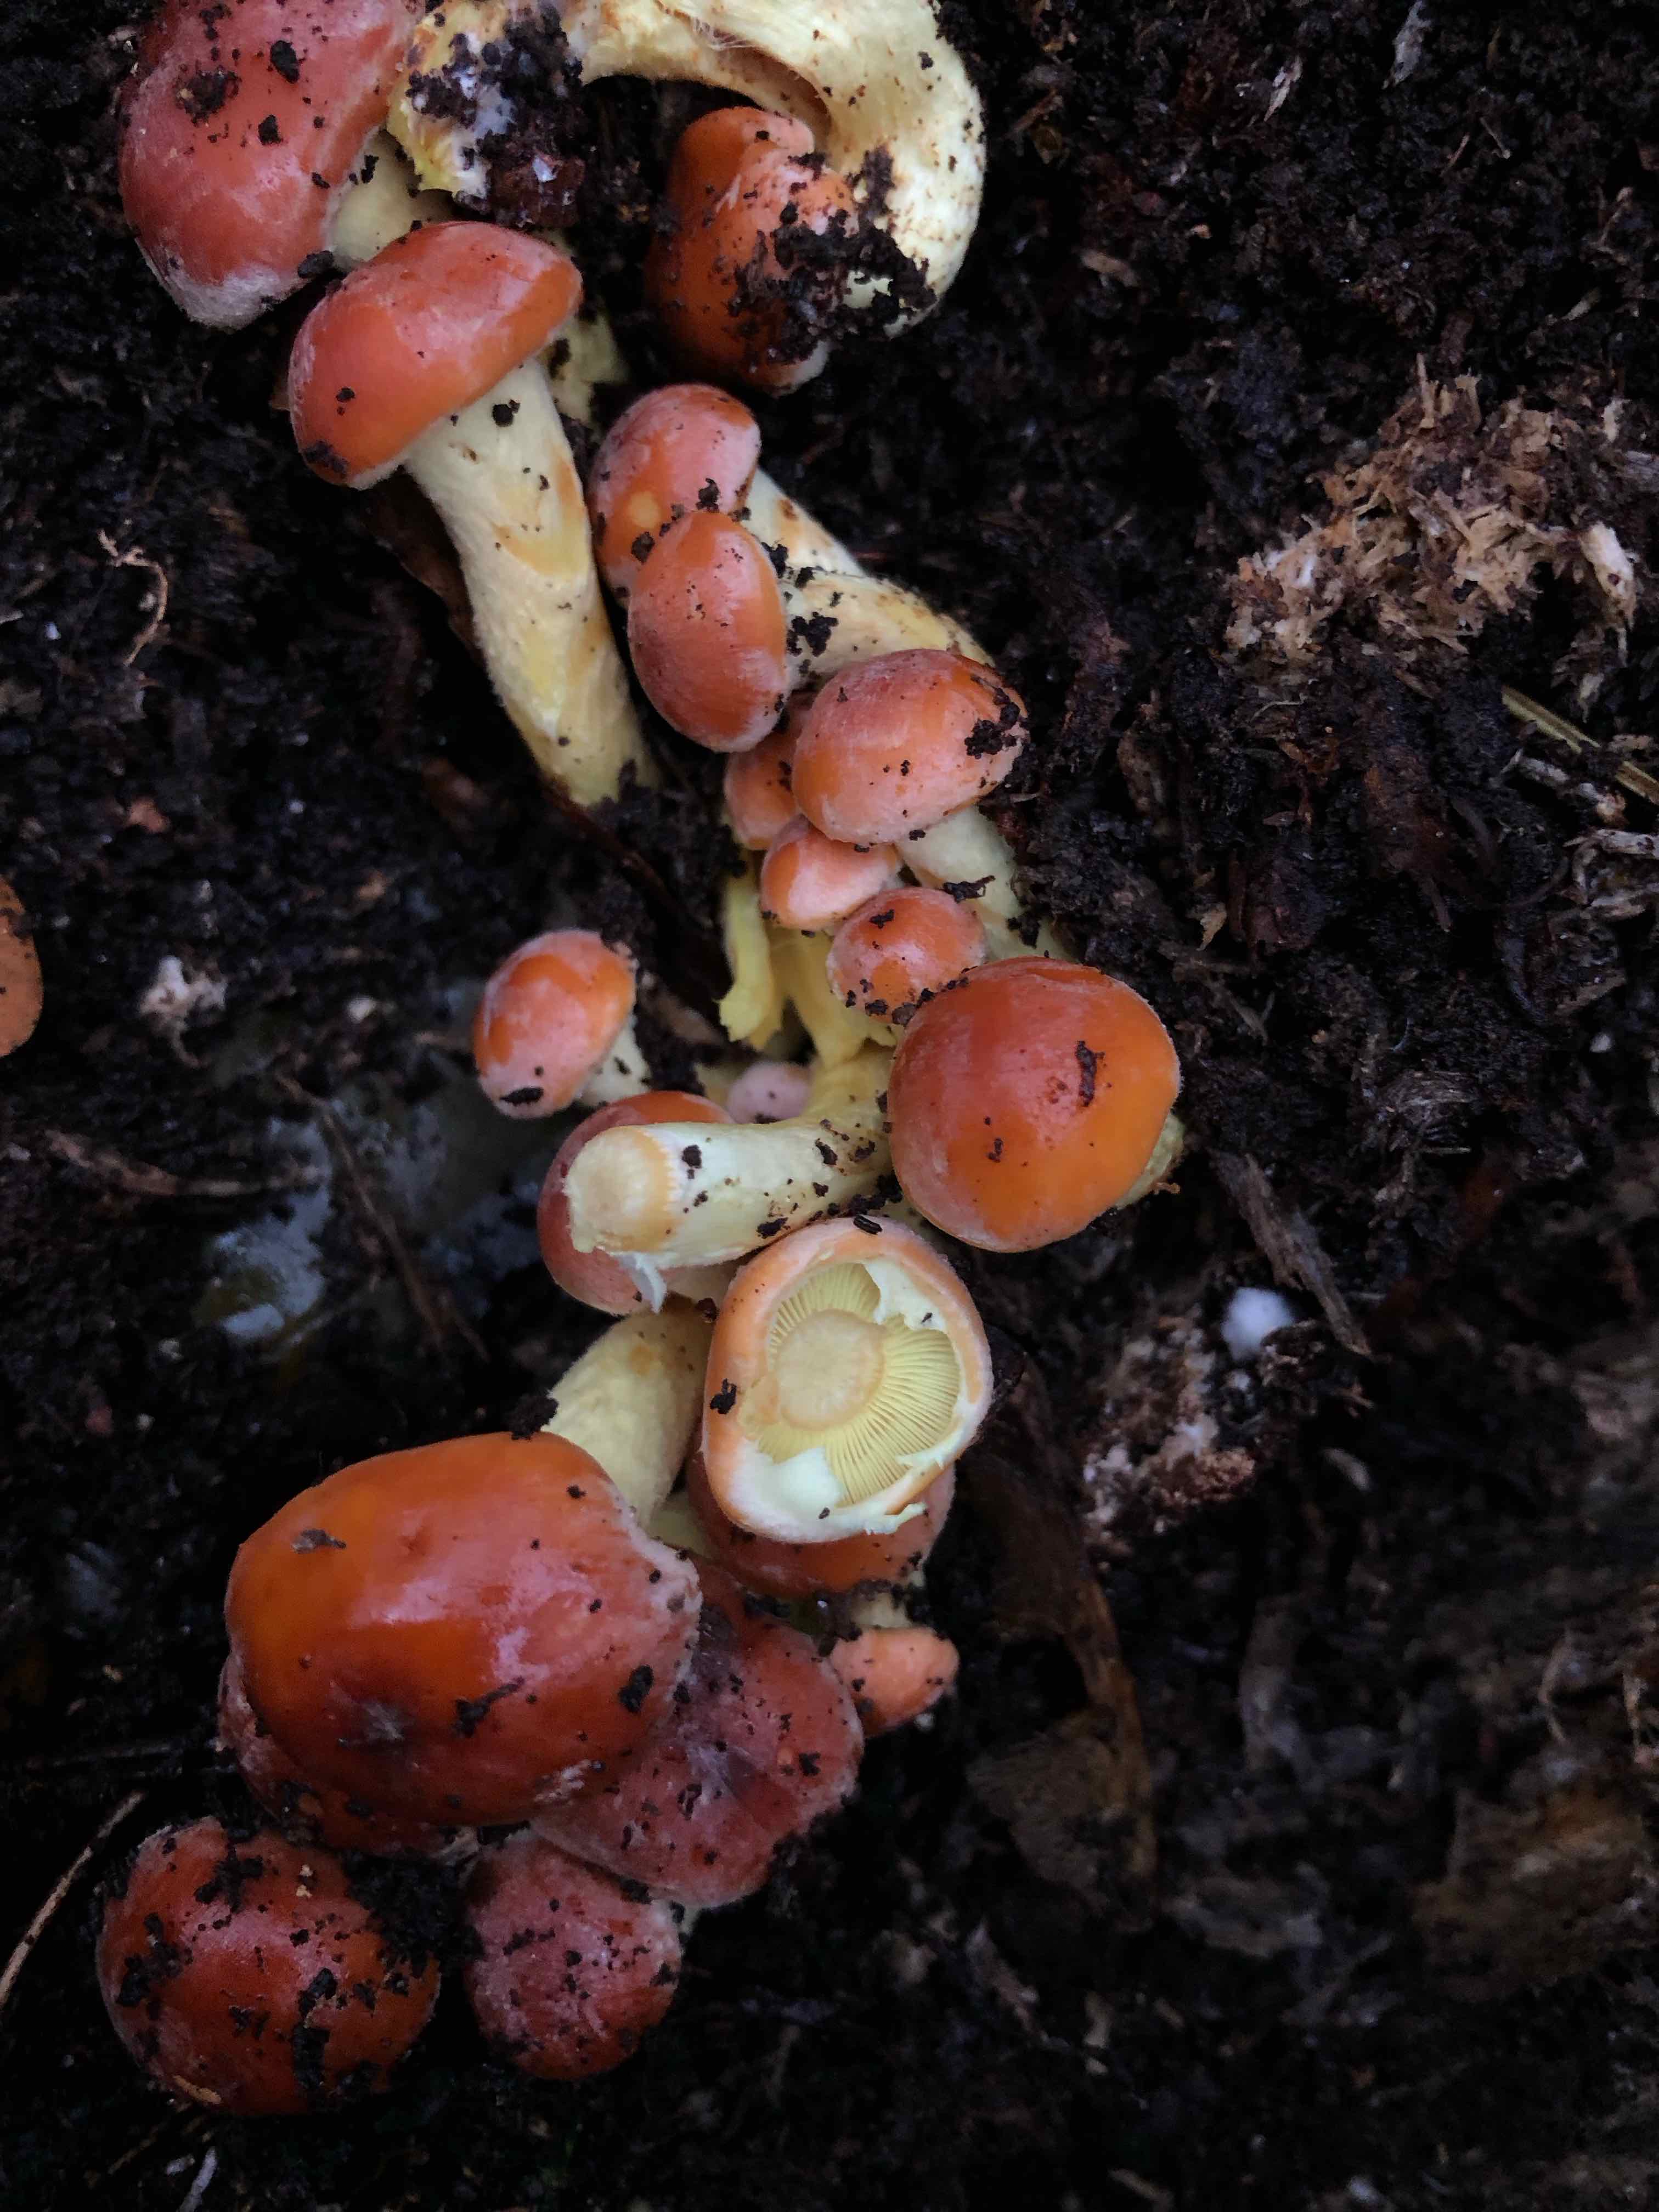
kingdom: Fungi
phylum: Basidiomycota
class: Agaricomycetes
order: Agaricales
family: Strophariaceae
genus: Hypholoma
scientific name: Hypholoma lateritium
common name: teglrød svovlhat
